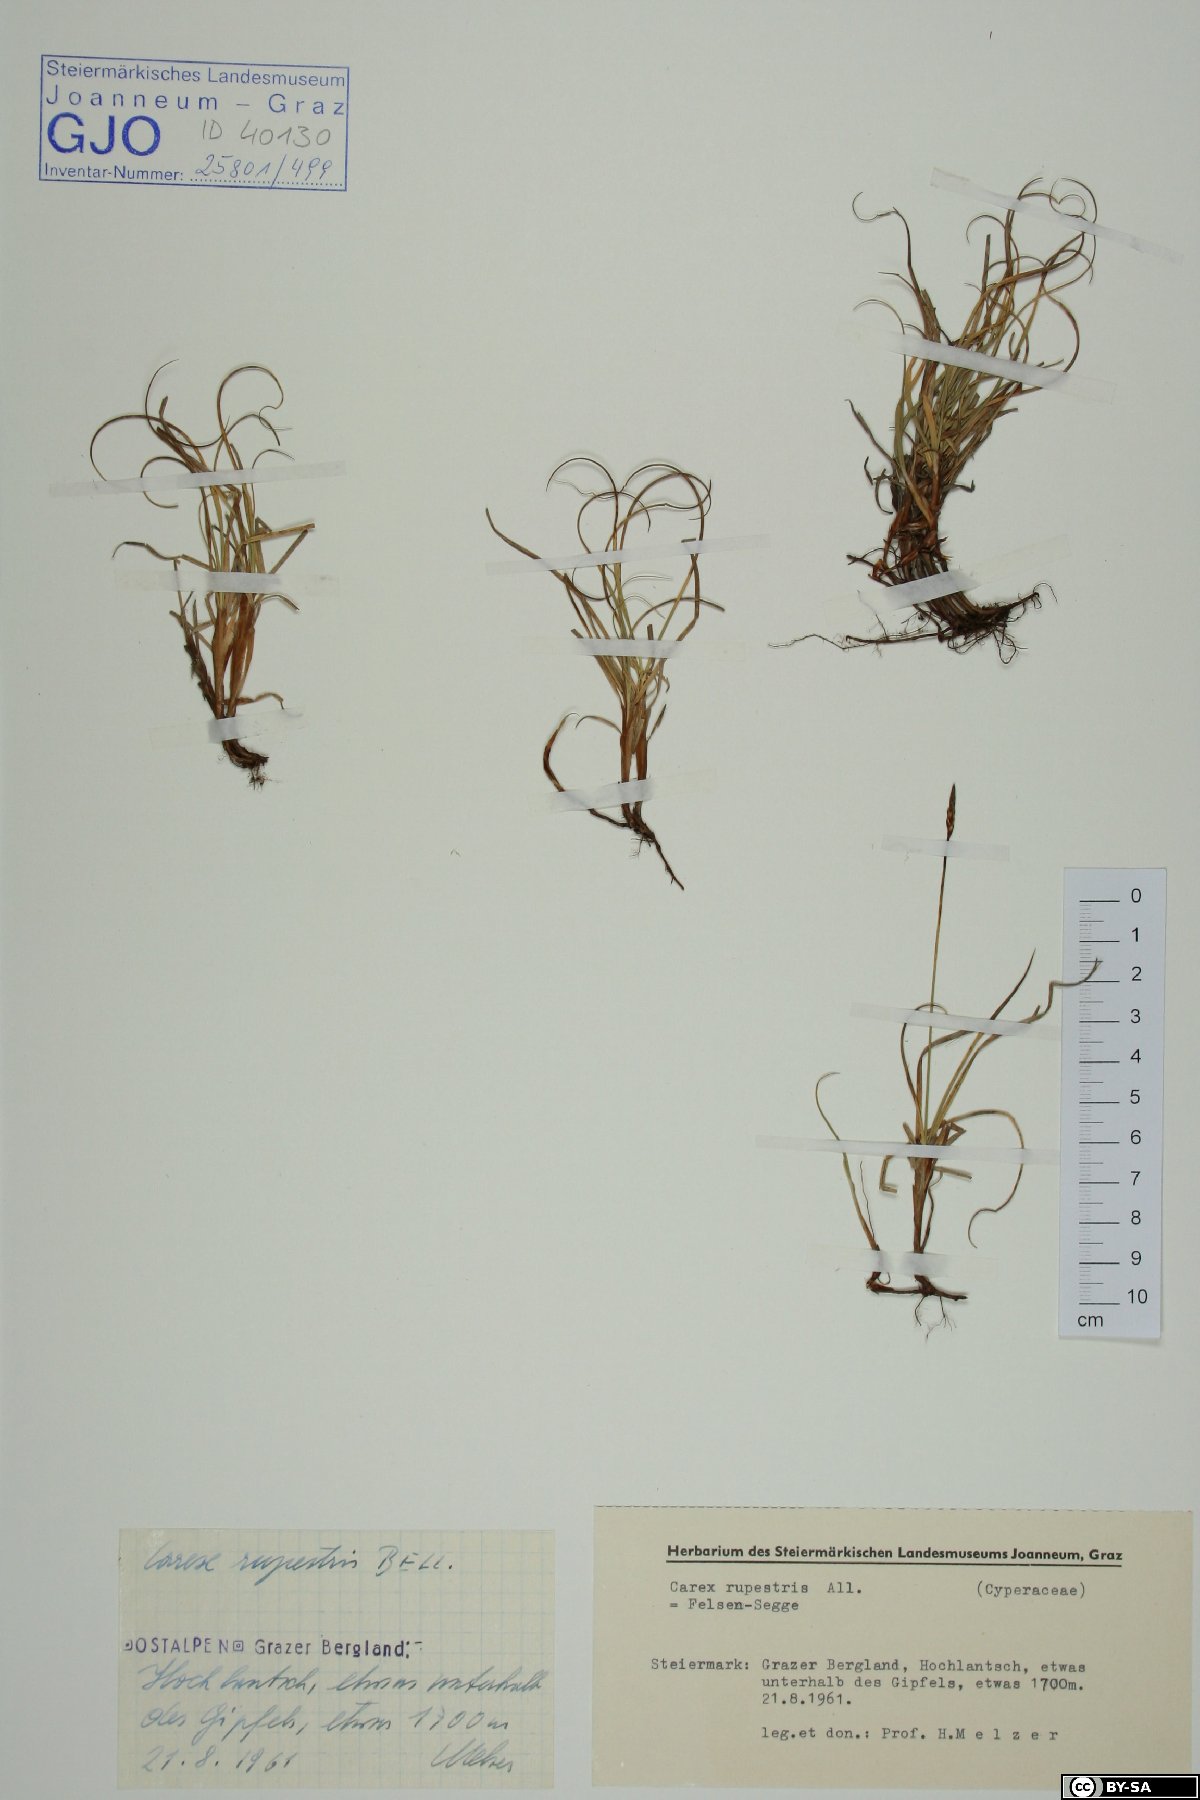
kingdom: Plantae
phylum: Tracheophyta
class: Liliopsida
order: Poales
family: Cyperaceae
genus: Carex
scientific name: Carex rupestris
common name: Rock sedge
